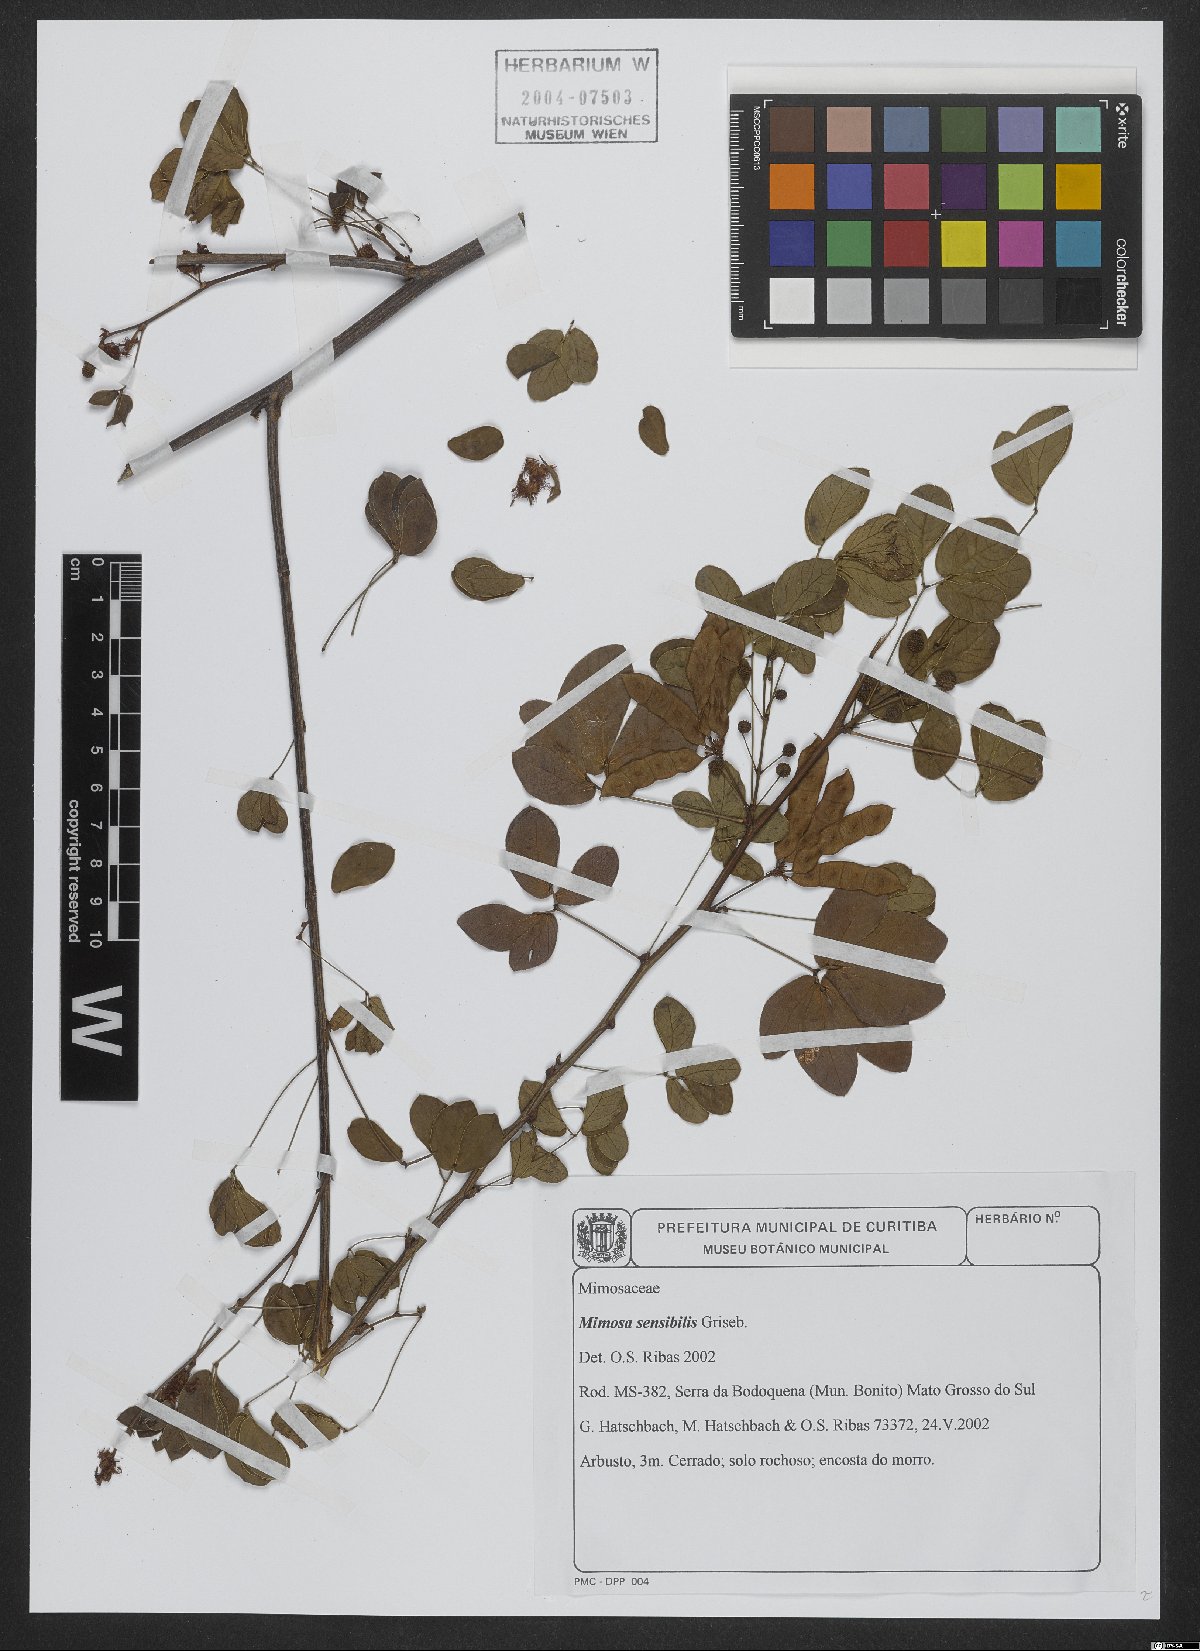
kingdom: Plantae
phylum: Tracheophyta
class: Magnoliopsida
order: Fabales
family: Fabaceae
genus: Mimosa
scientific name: Mimosa sensibilis
